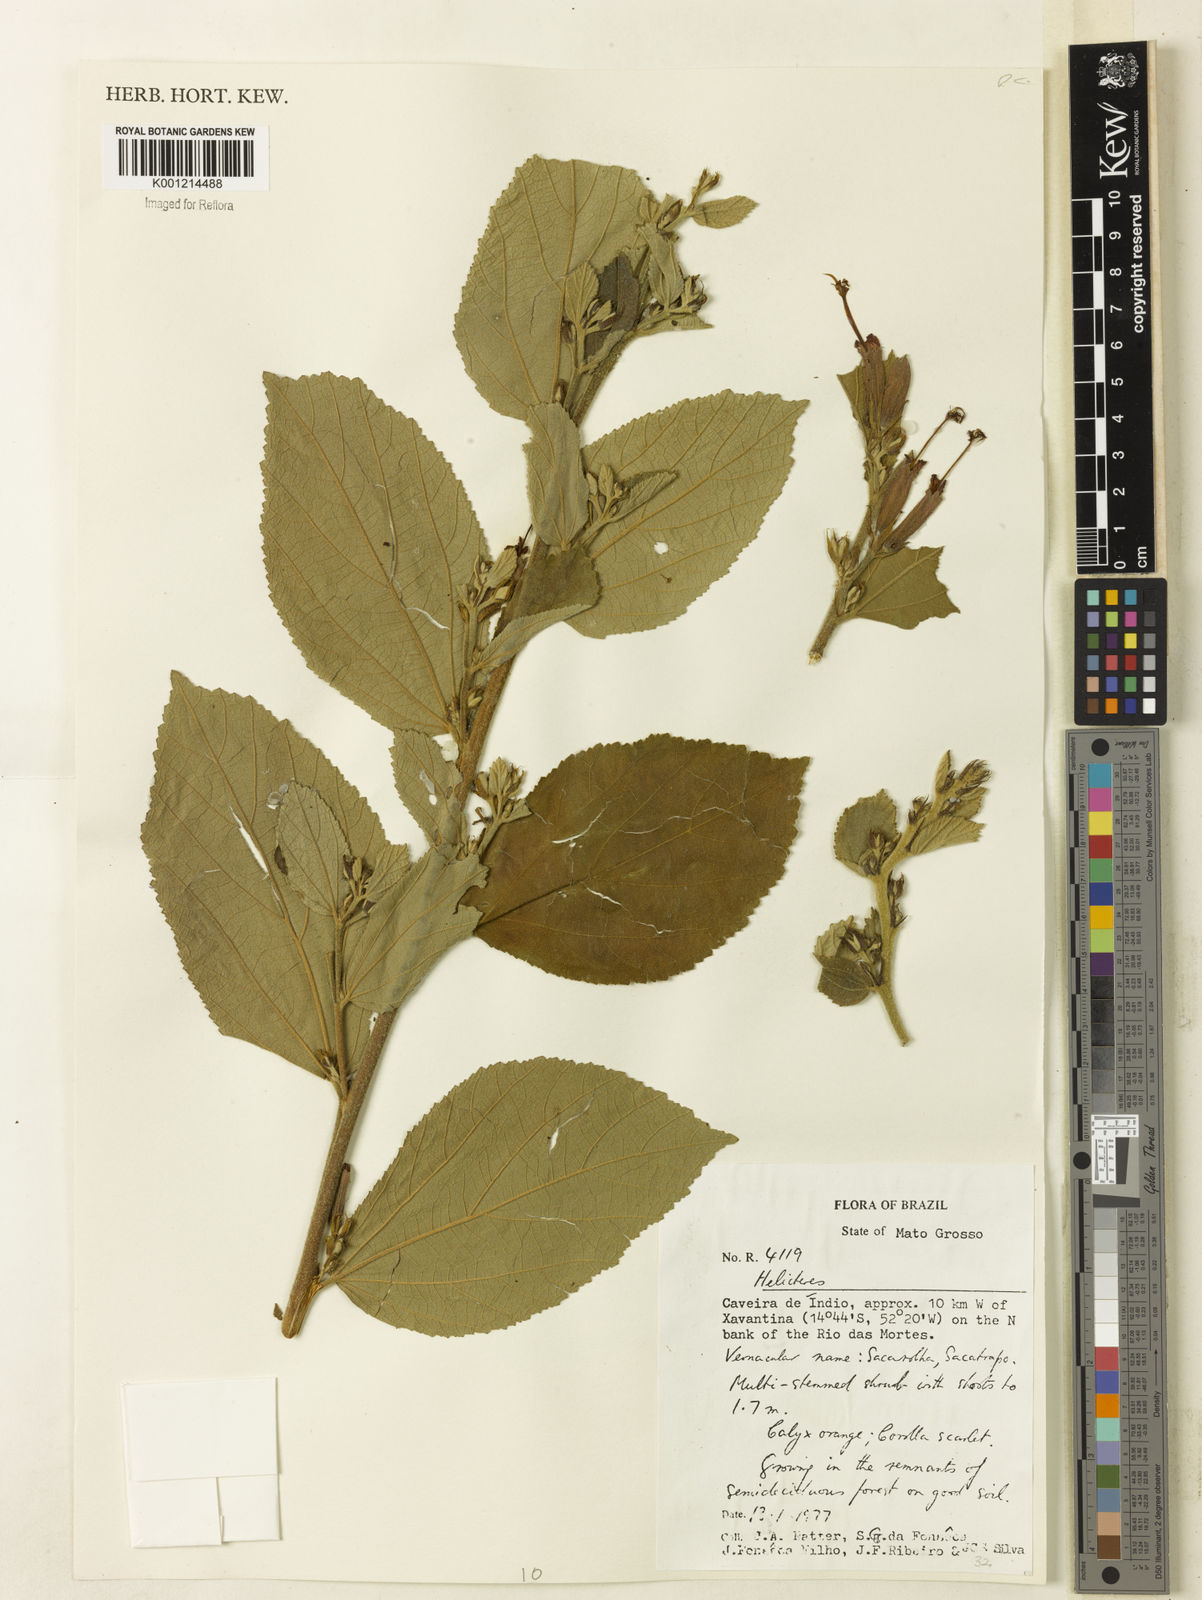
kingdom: Plantae
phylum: Tracheophyta
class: Magnoliopsida
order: Malvales
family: Malvaceae
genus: Helicteres
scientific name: Helicteres
